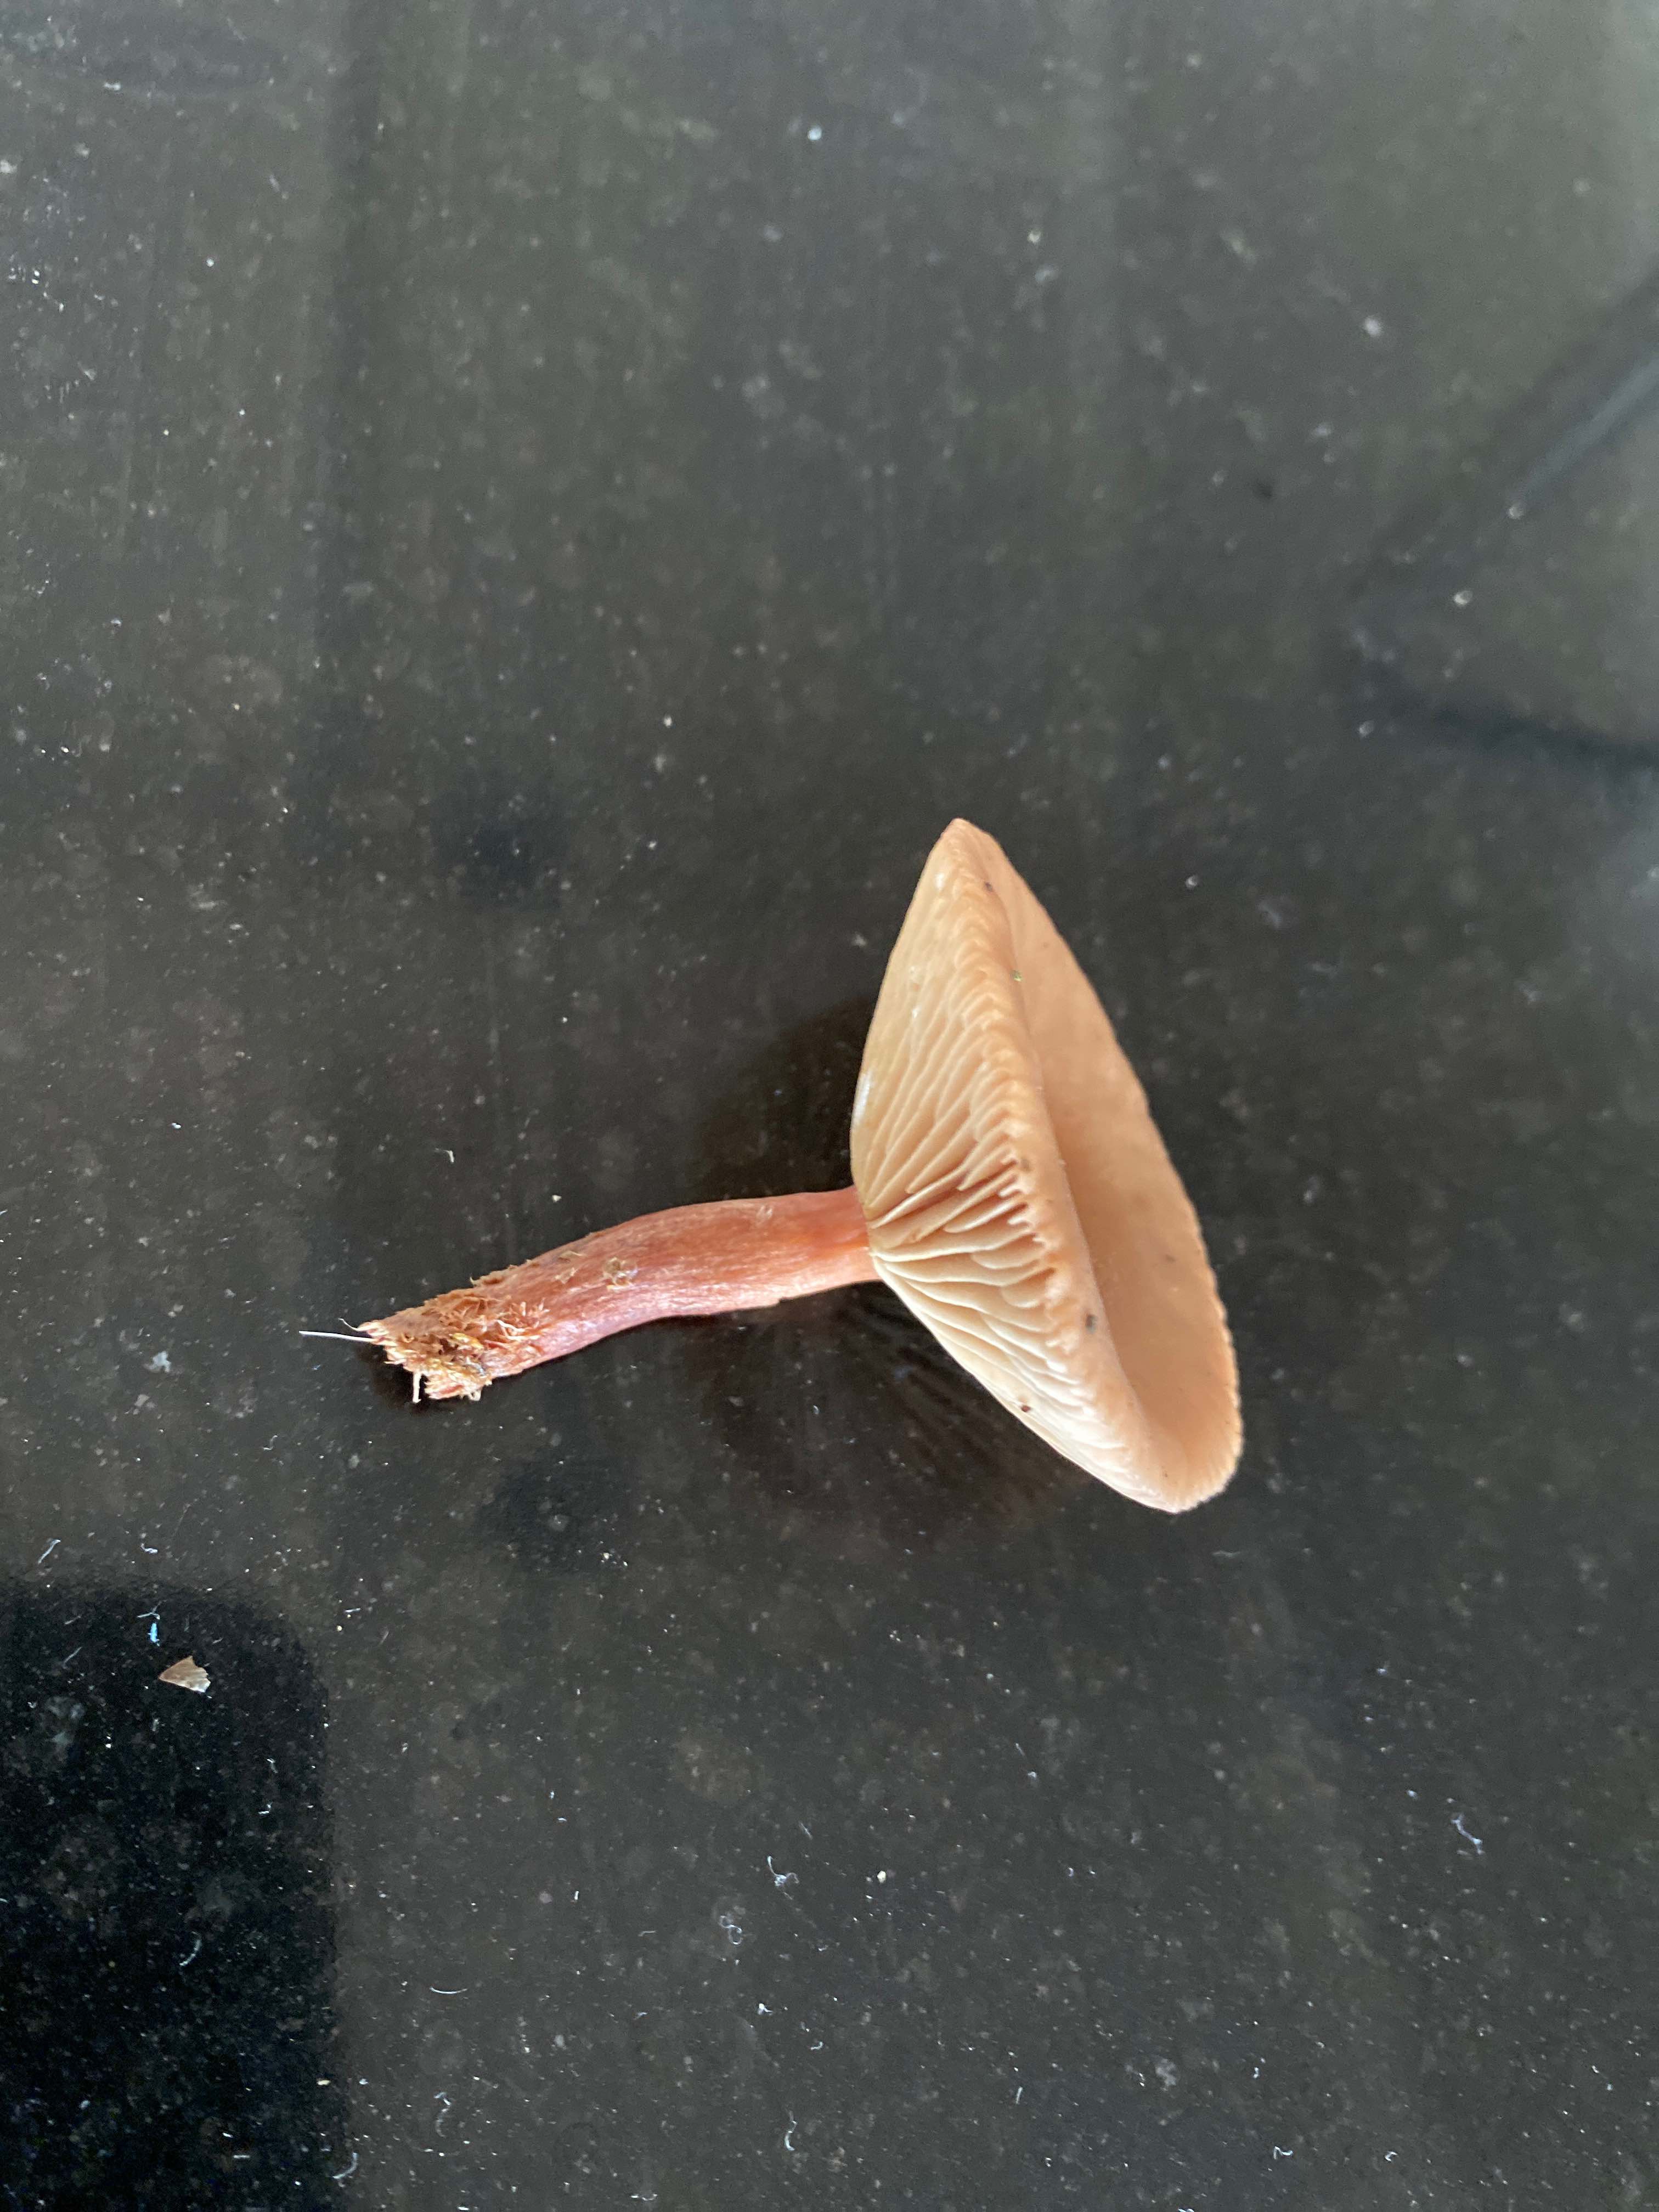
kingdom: Fungi
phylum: Basidiomycota
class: Agaricomycetes
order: Russulales
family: Russulaceae
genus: Lactarius
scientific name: Lactarius tabidus
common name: rynket mælkehat
